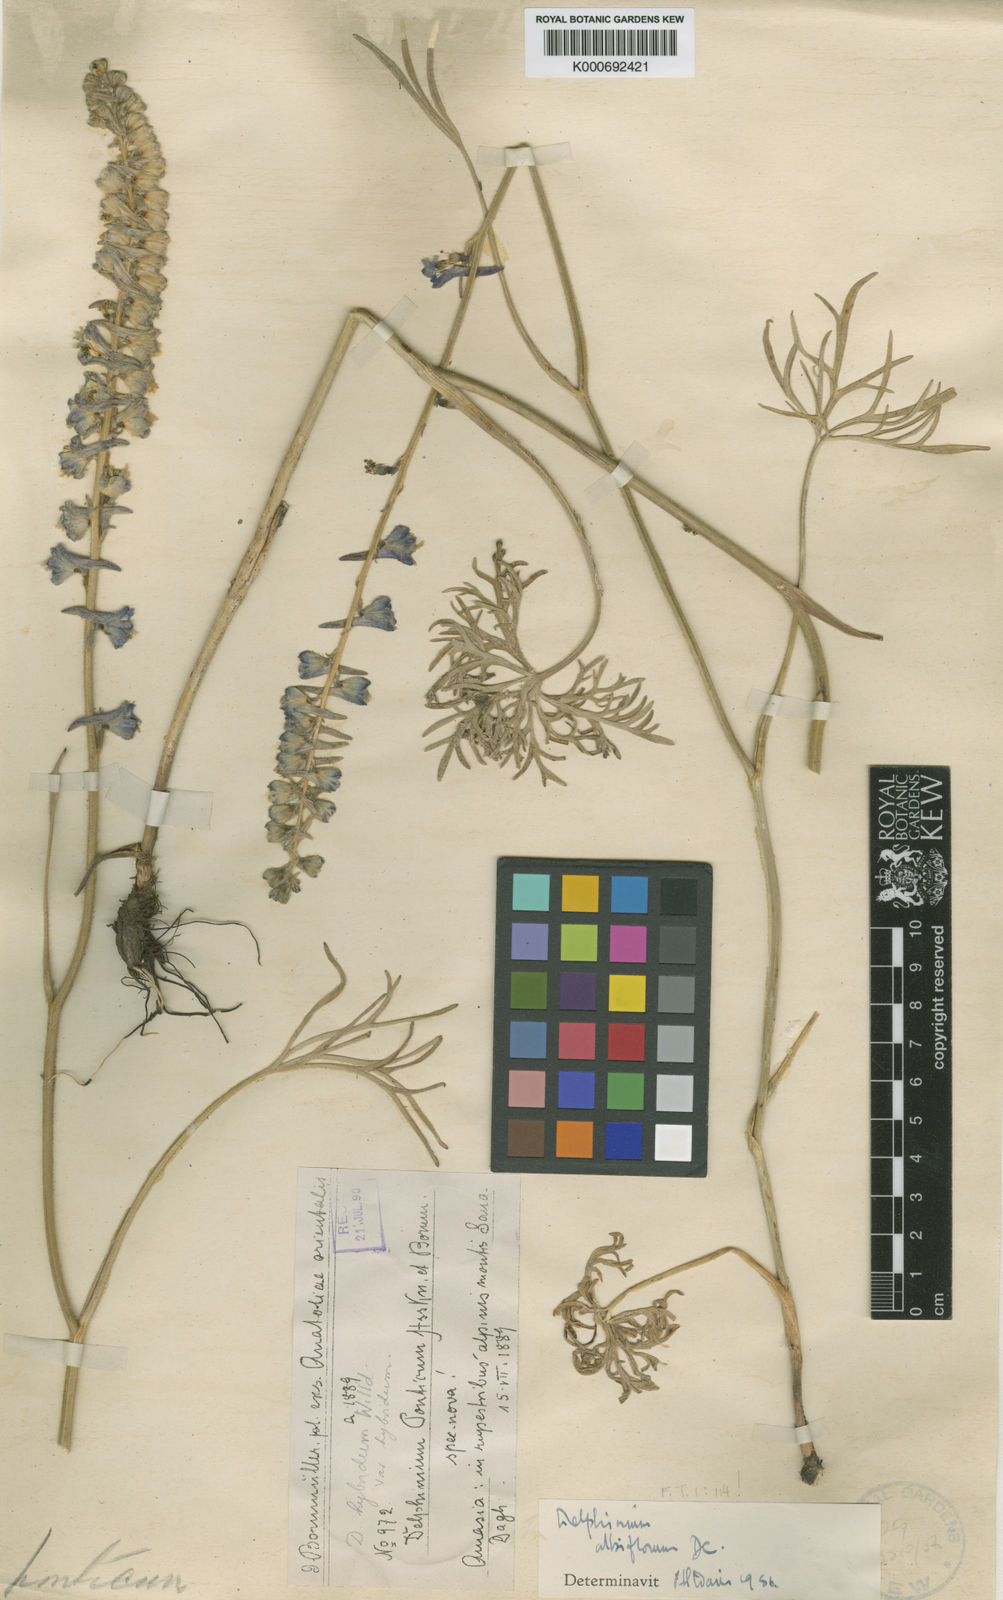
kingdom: Plantae
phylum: Tracheophyta
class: Magnoliopsida
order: Ranunculales
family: Ranunculaceae
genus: Delphinium
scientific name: Delphinium albiflorum
